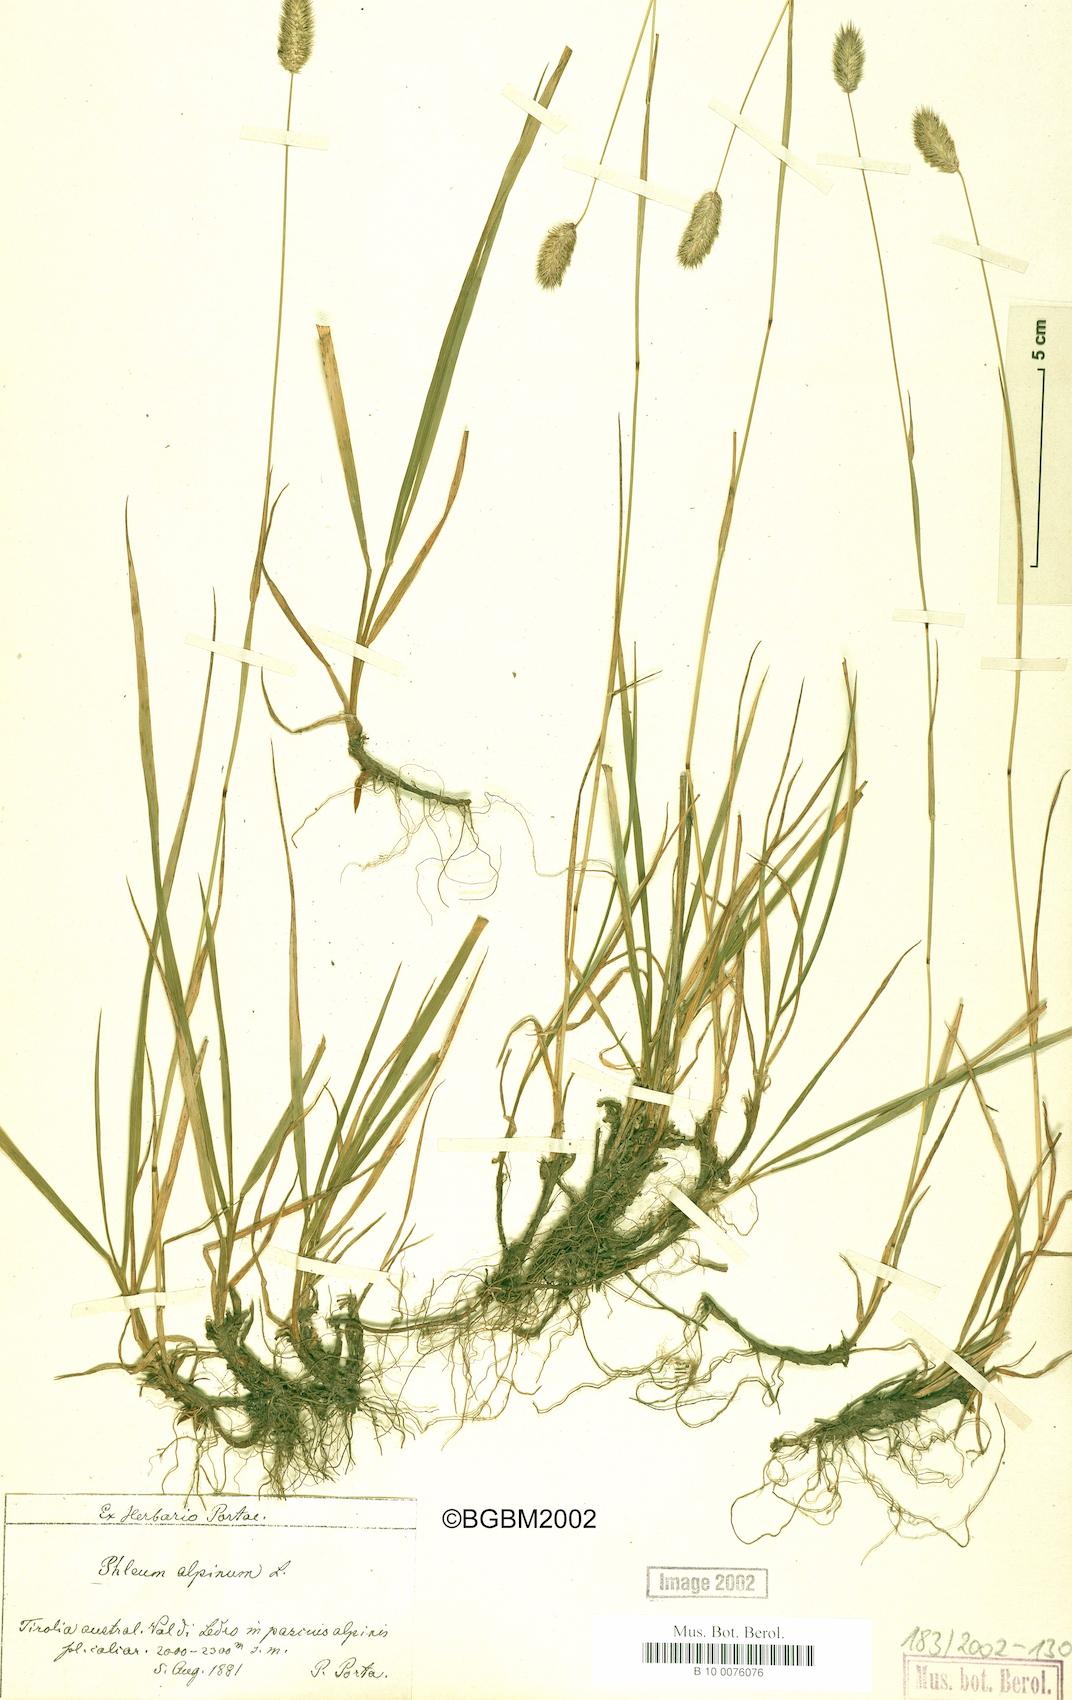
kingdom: Plantae
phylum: Tracheophyta
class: Liliopsida
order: Poales
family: Poaceae
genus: Phleum
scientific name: Phleum alpinum
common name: Alpine cat's-tail
